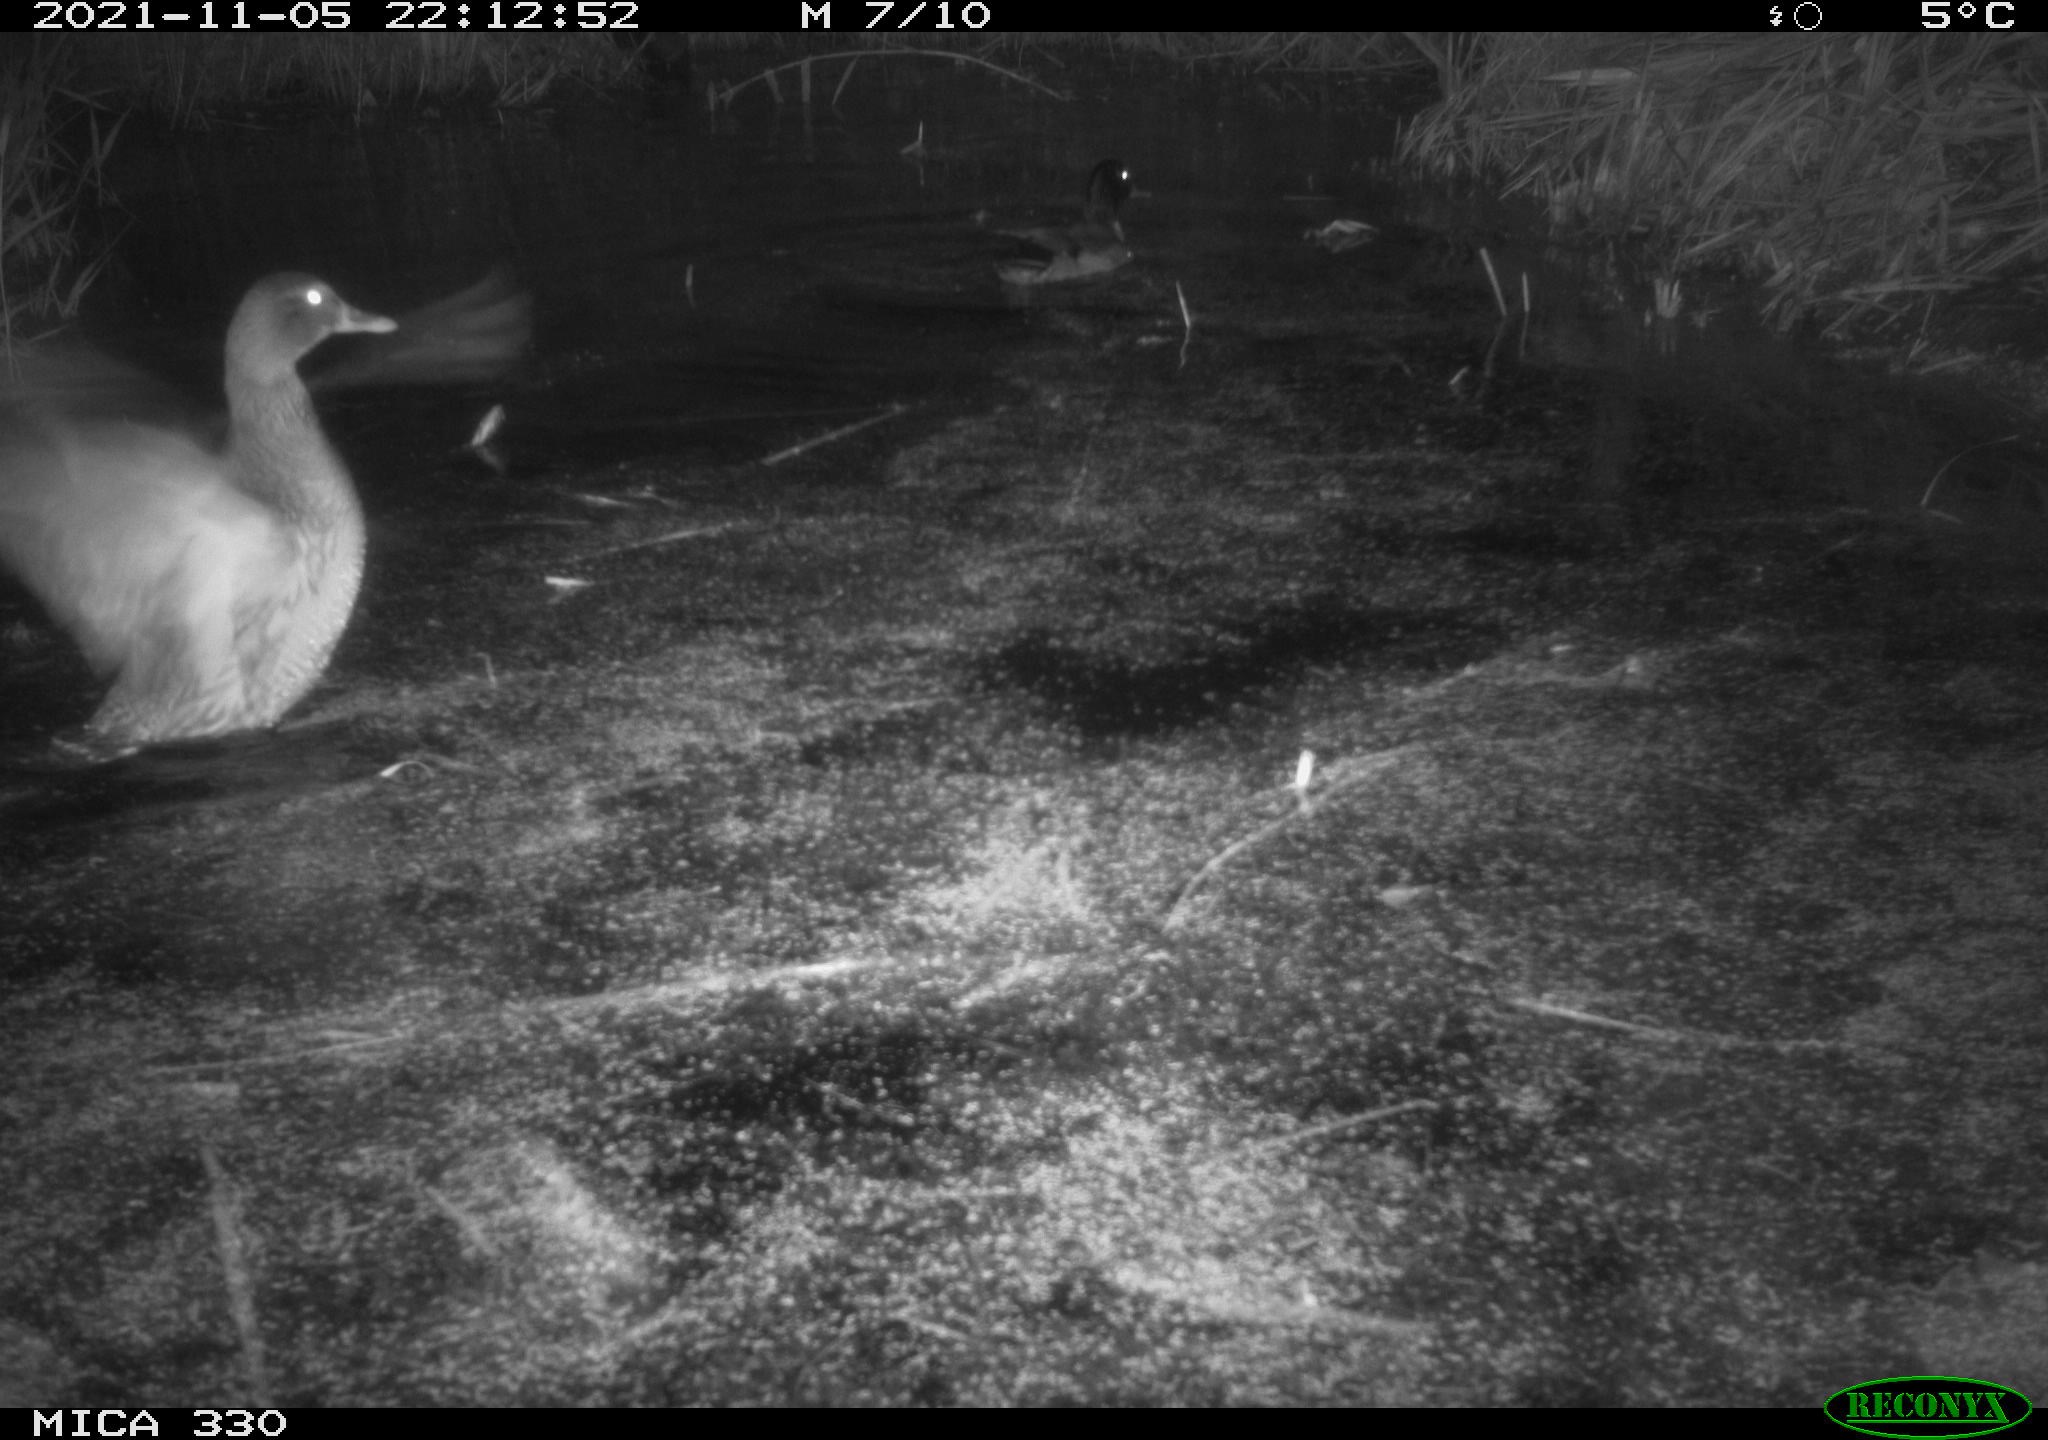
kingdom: Animalia
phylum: Chordata
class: Aves
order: Anseriformes
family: Anatidae
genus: Anas
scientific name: Anas platyrhynchos
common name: Mallard
